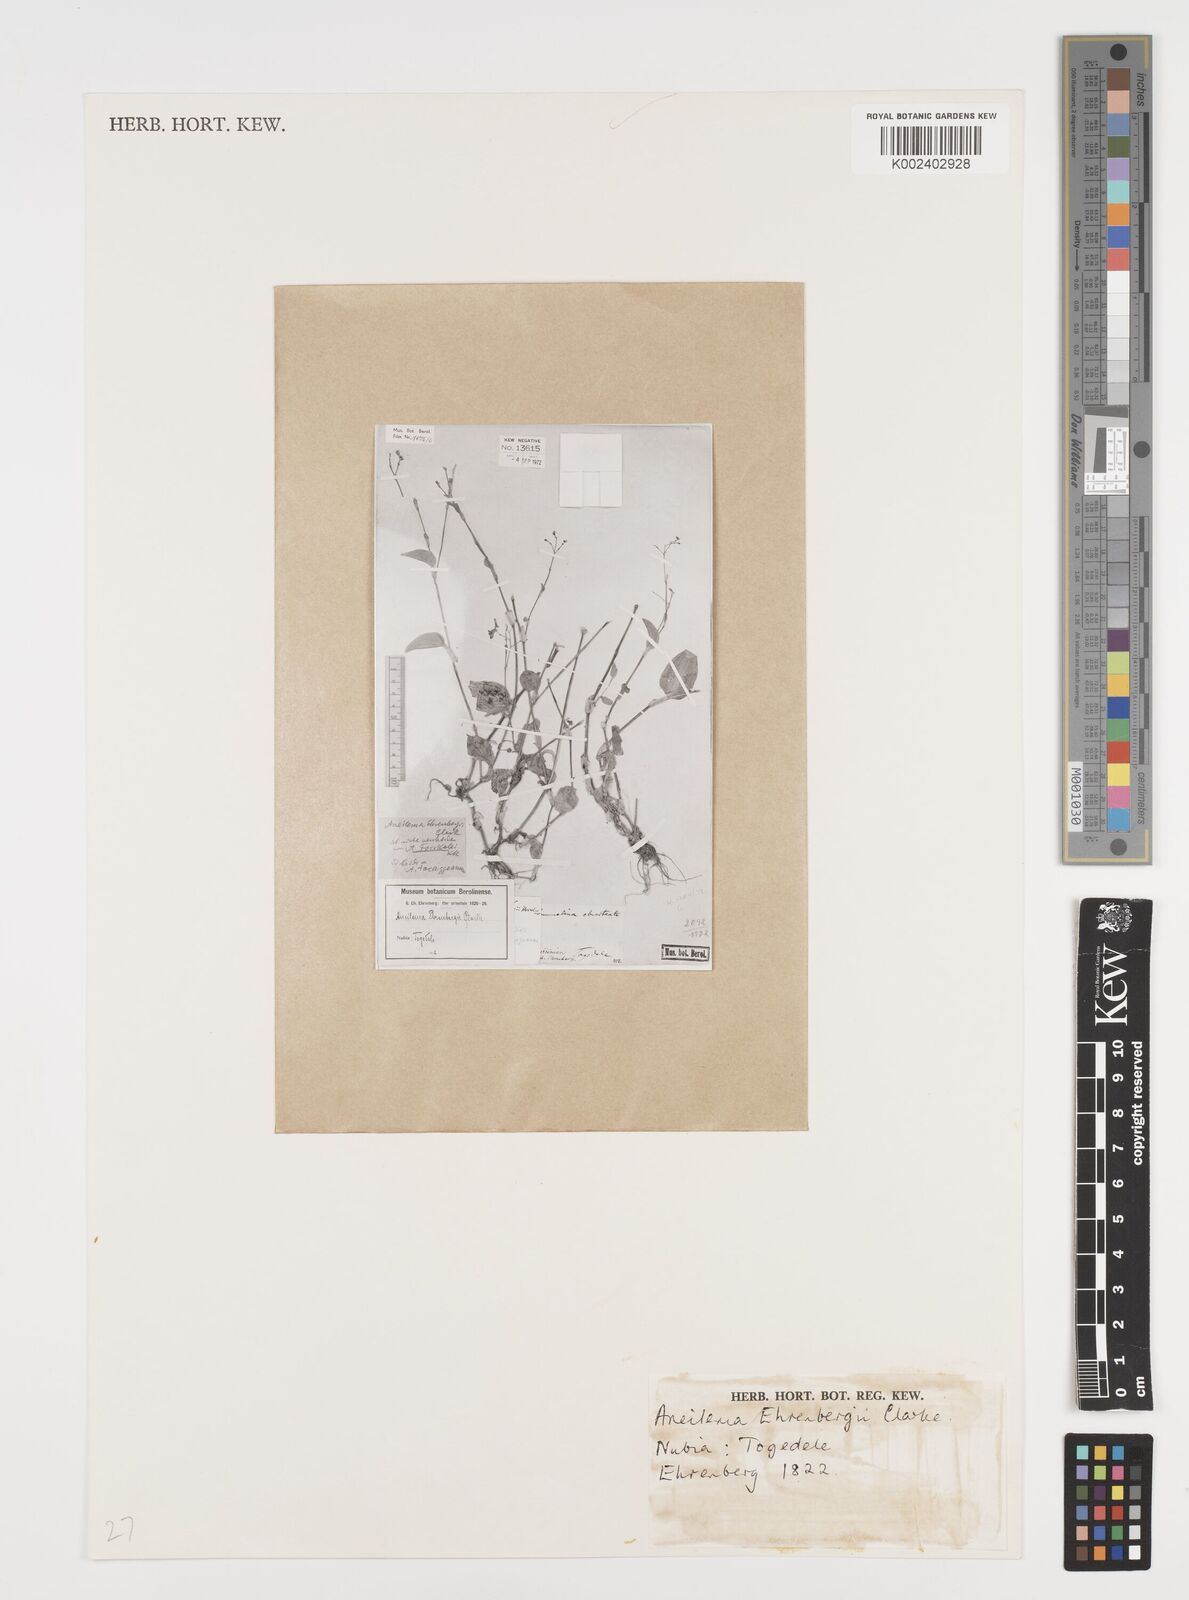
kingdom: Plantae
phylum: Tracheophyta
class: Liliopsida
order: Commelinales
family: Commelinaceae
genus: Aneilema
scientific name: Aneilema forskalii
